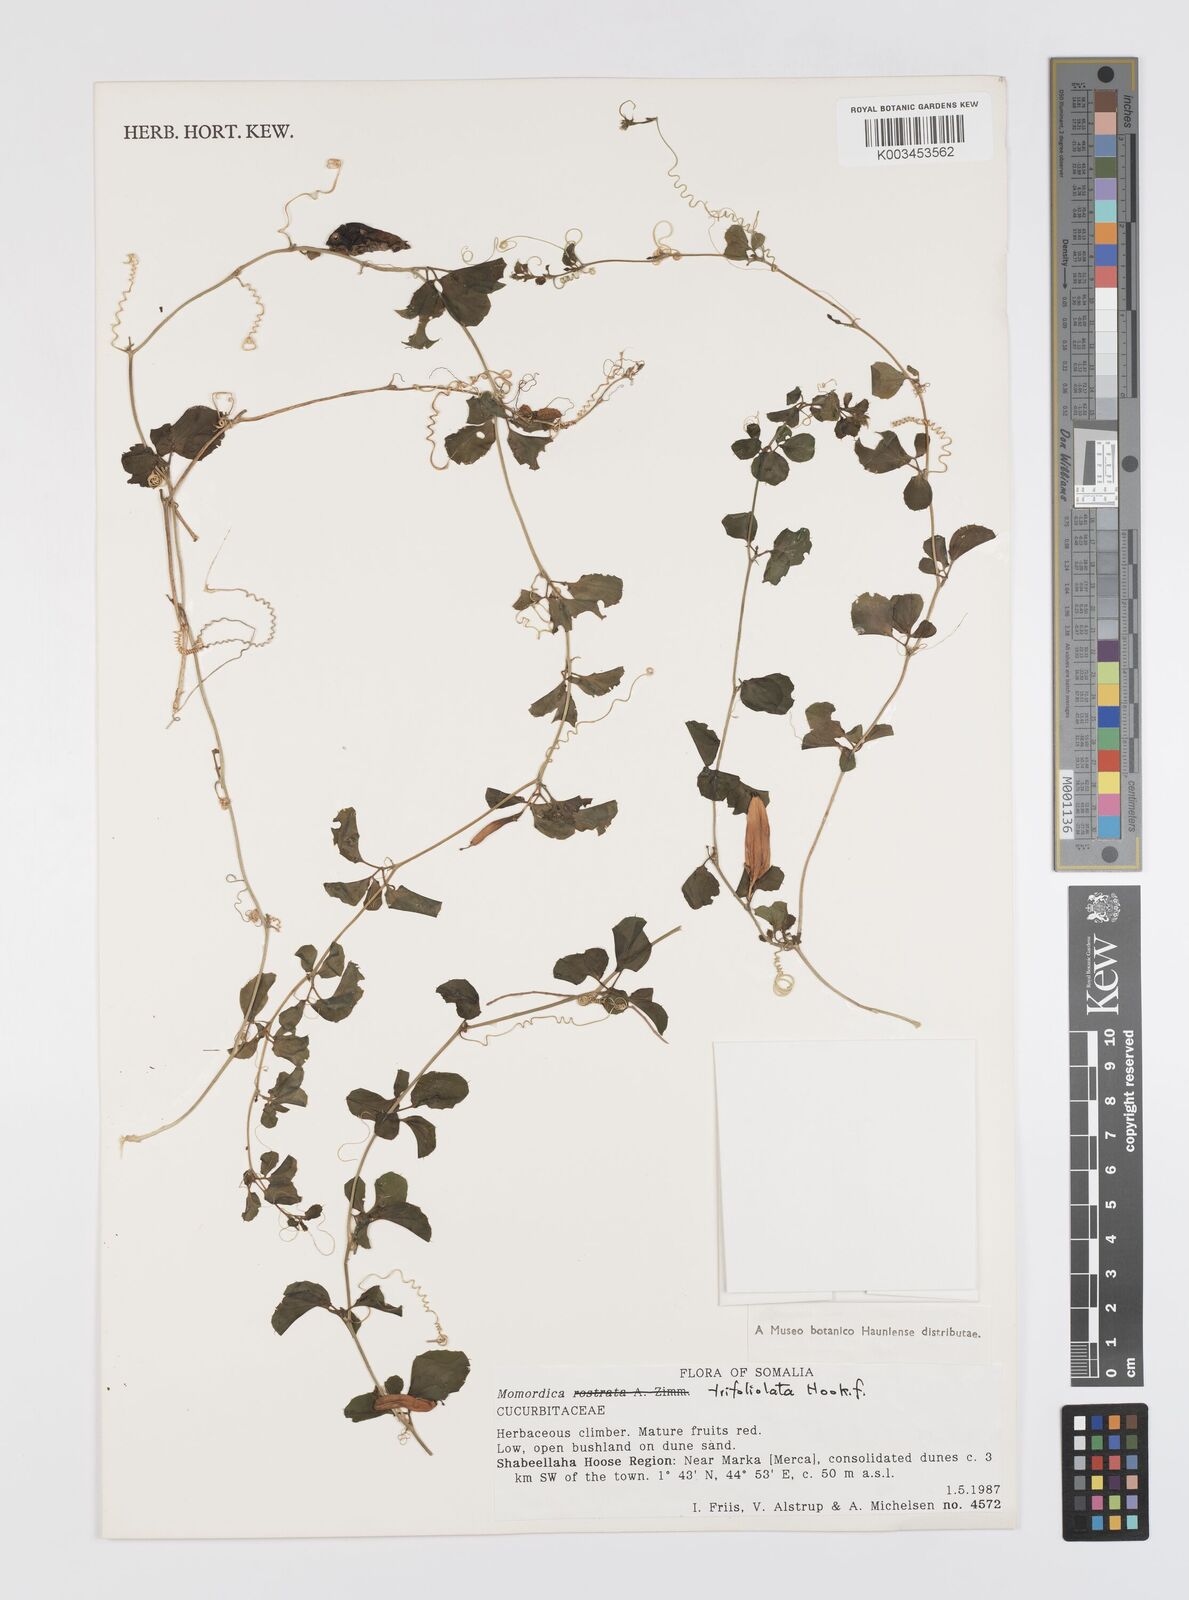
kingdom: Plantae
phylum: Tracheophyta
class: Magnoliopsida
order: Cucurbitales
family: Cucurbitaceae
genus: Momordica
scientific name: Momordica trifoliolata
